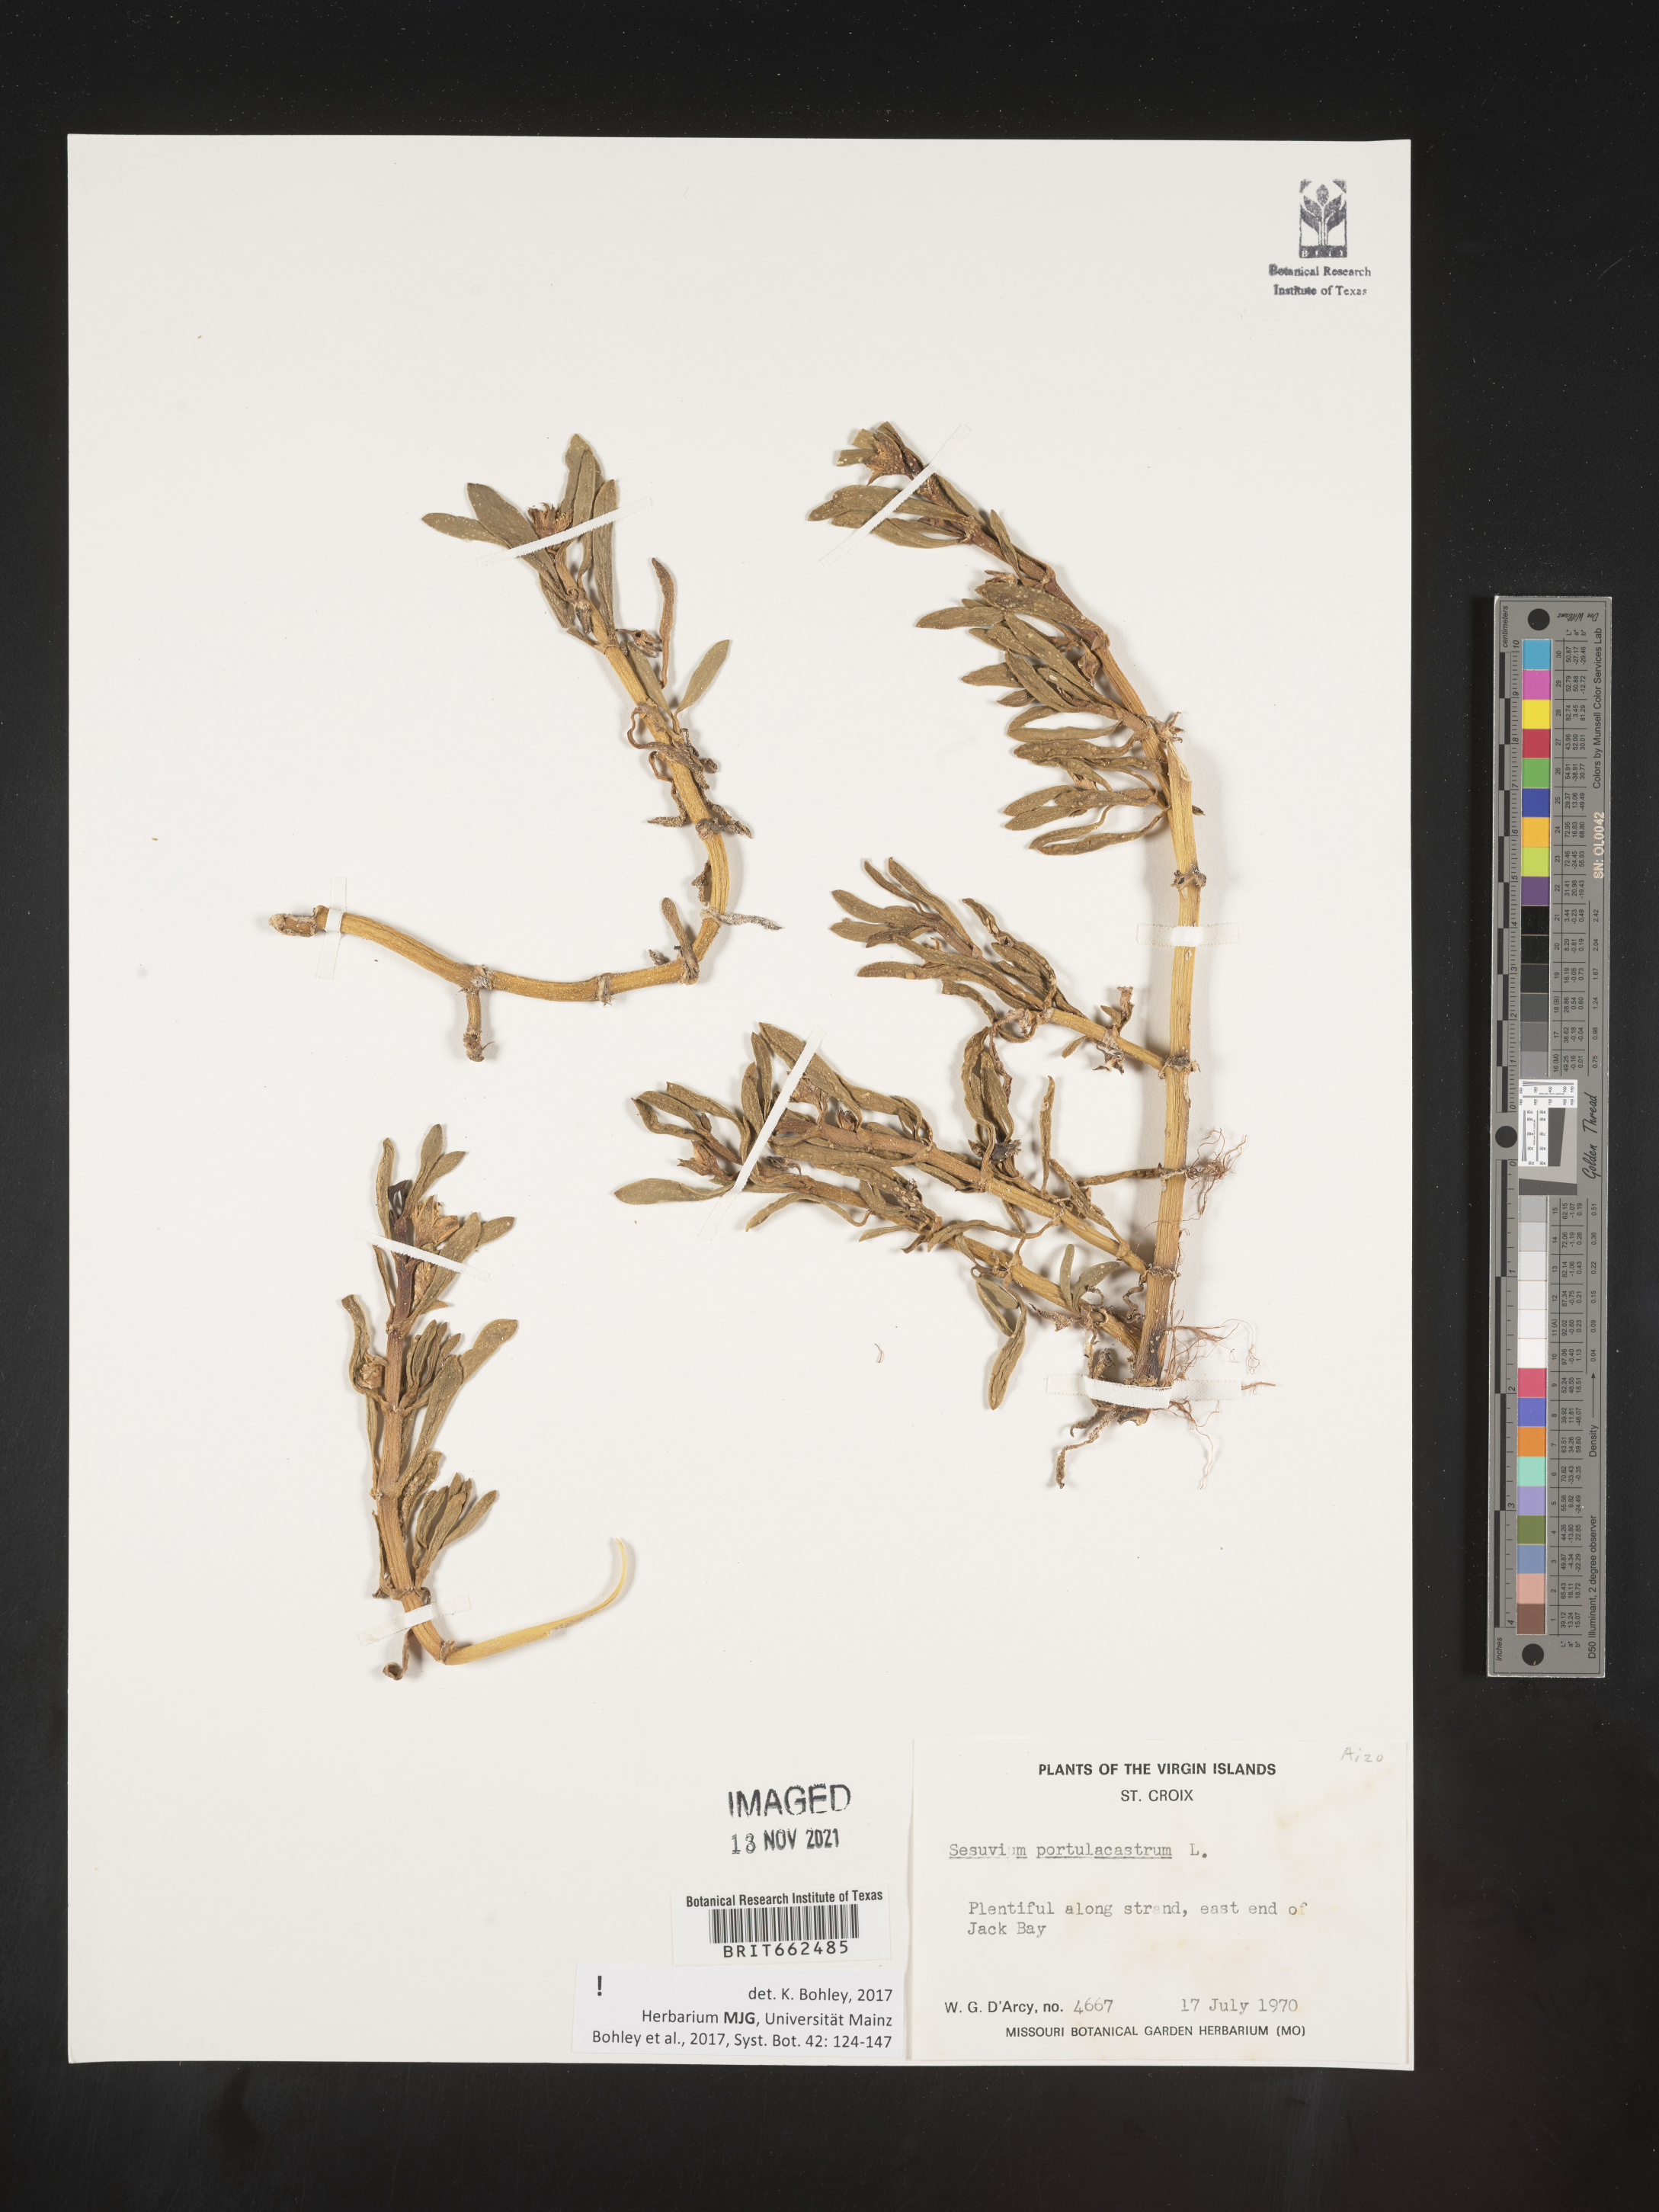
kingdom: Plantae
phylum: Tracheophyta
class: Magnoliopsida
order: Caryophyllales
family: Aizoaceae
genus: Sesuvium
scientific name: Sesuvium
